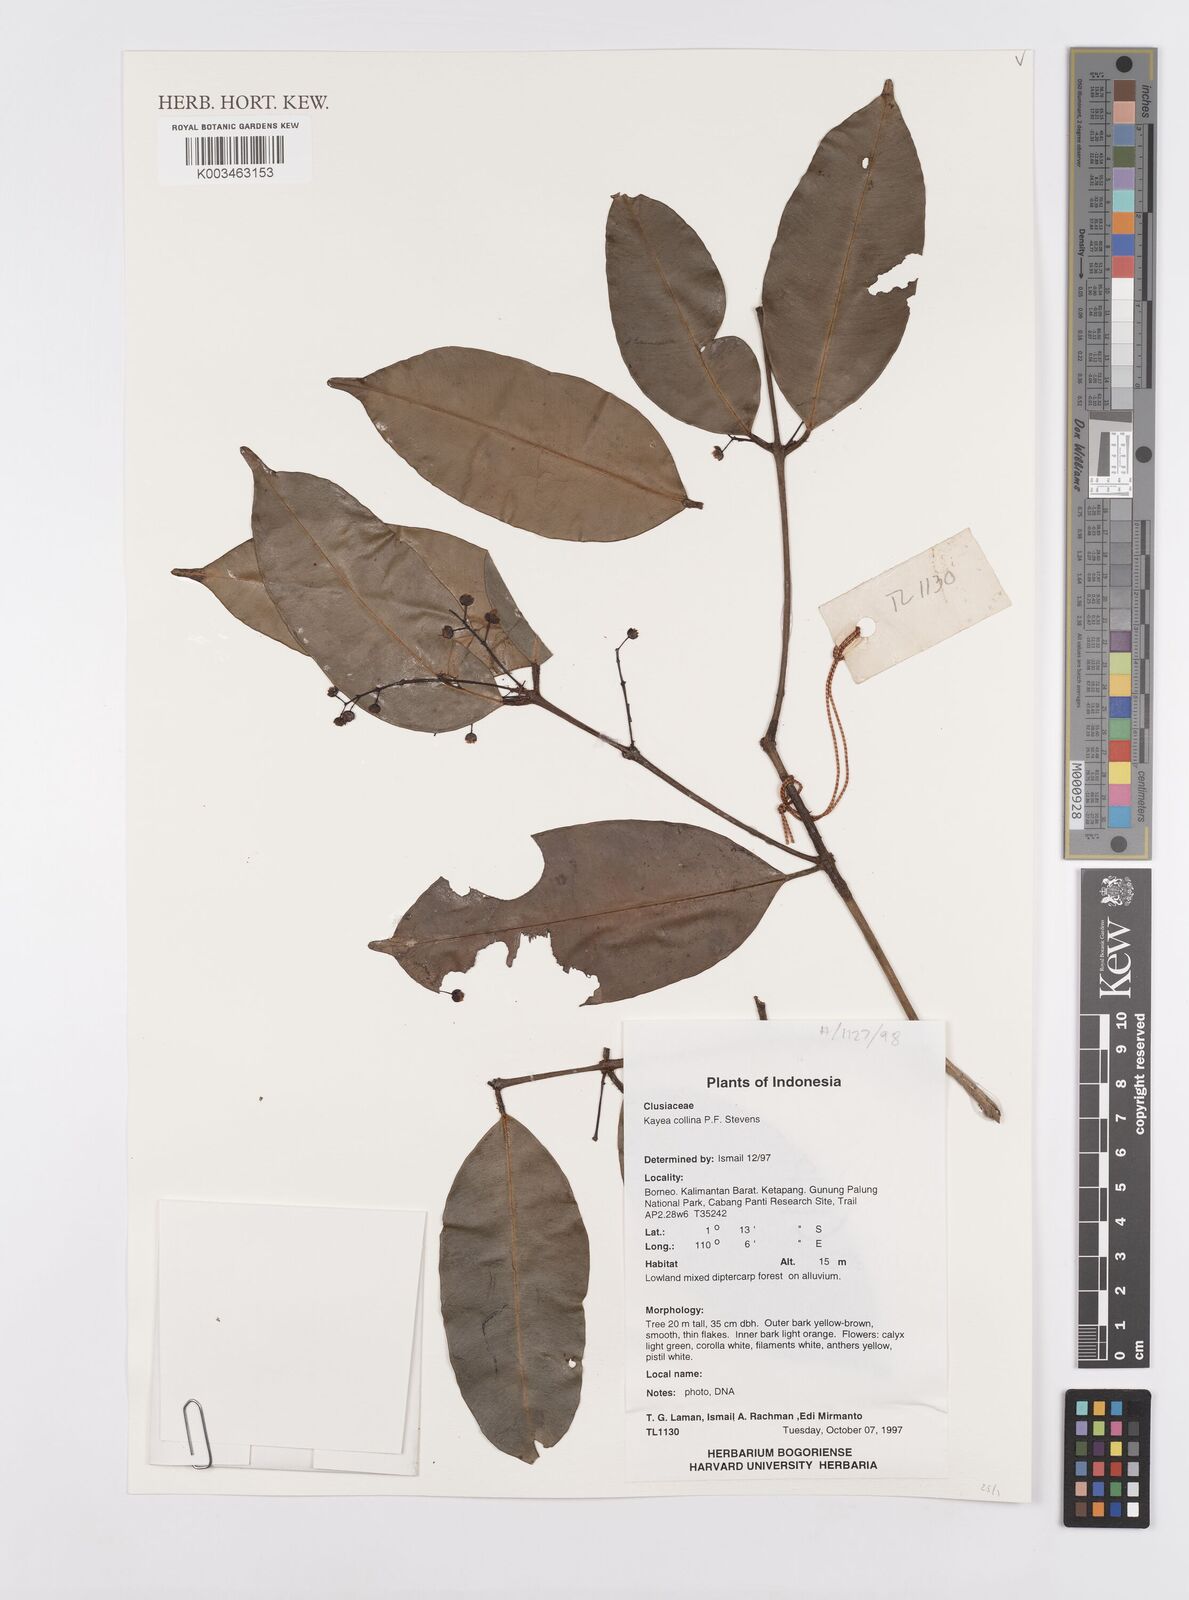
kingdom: Plantae
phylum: Tracheophyta
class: Magnoliopsida
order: Malpighiales
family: Calophyllaceae
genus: Kayea
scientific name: Kayea
